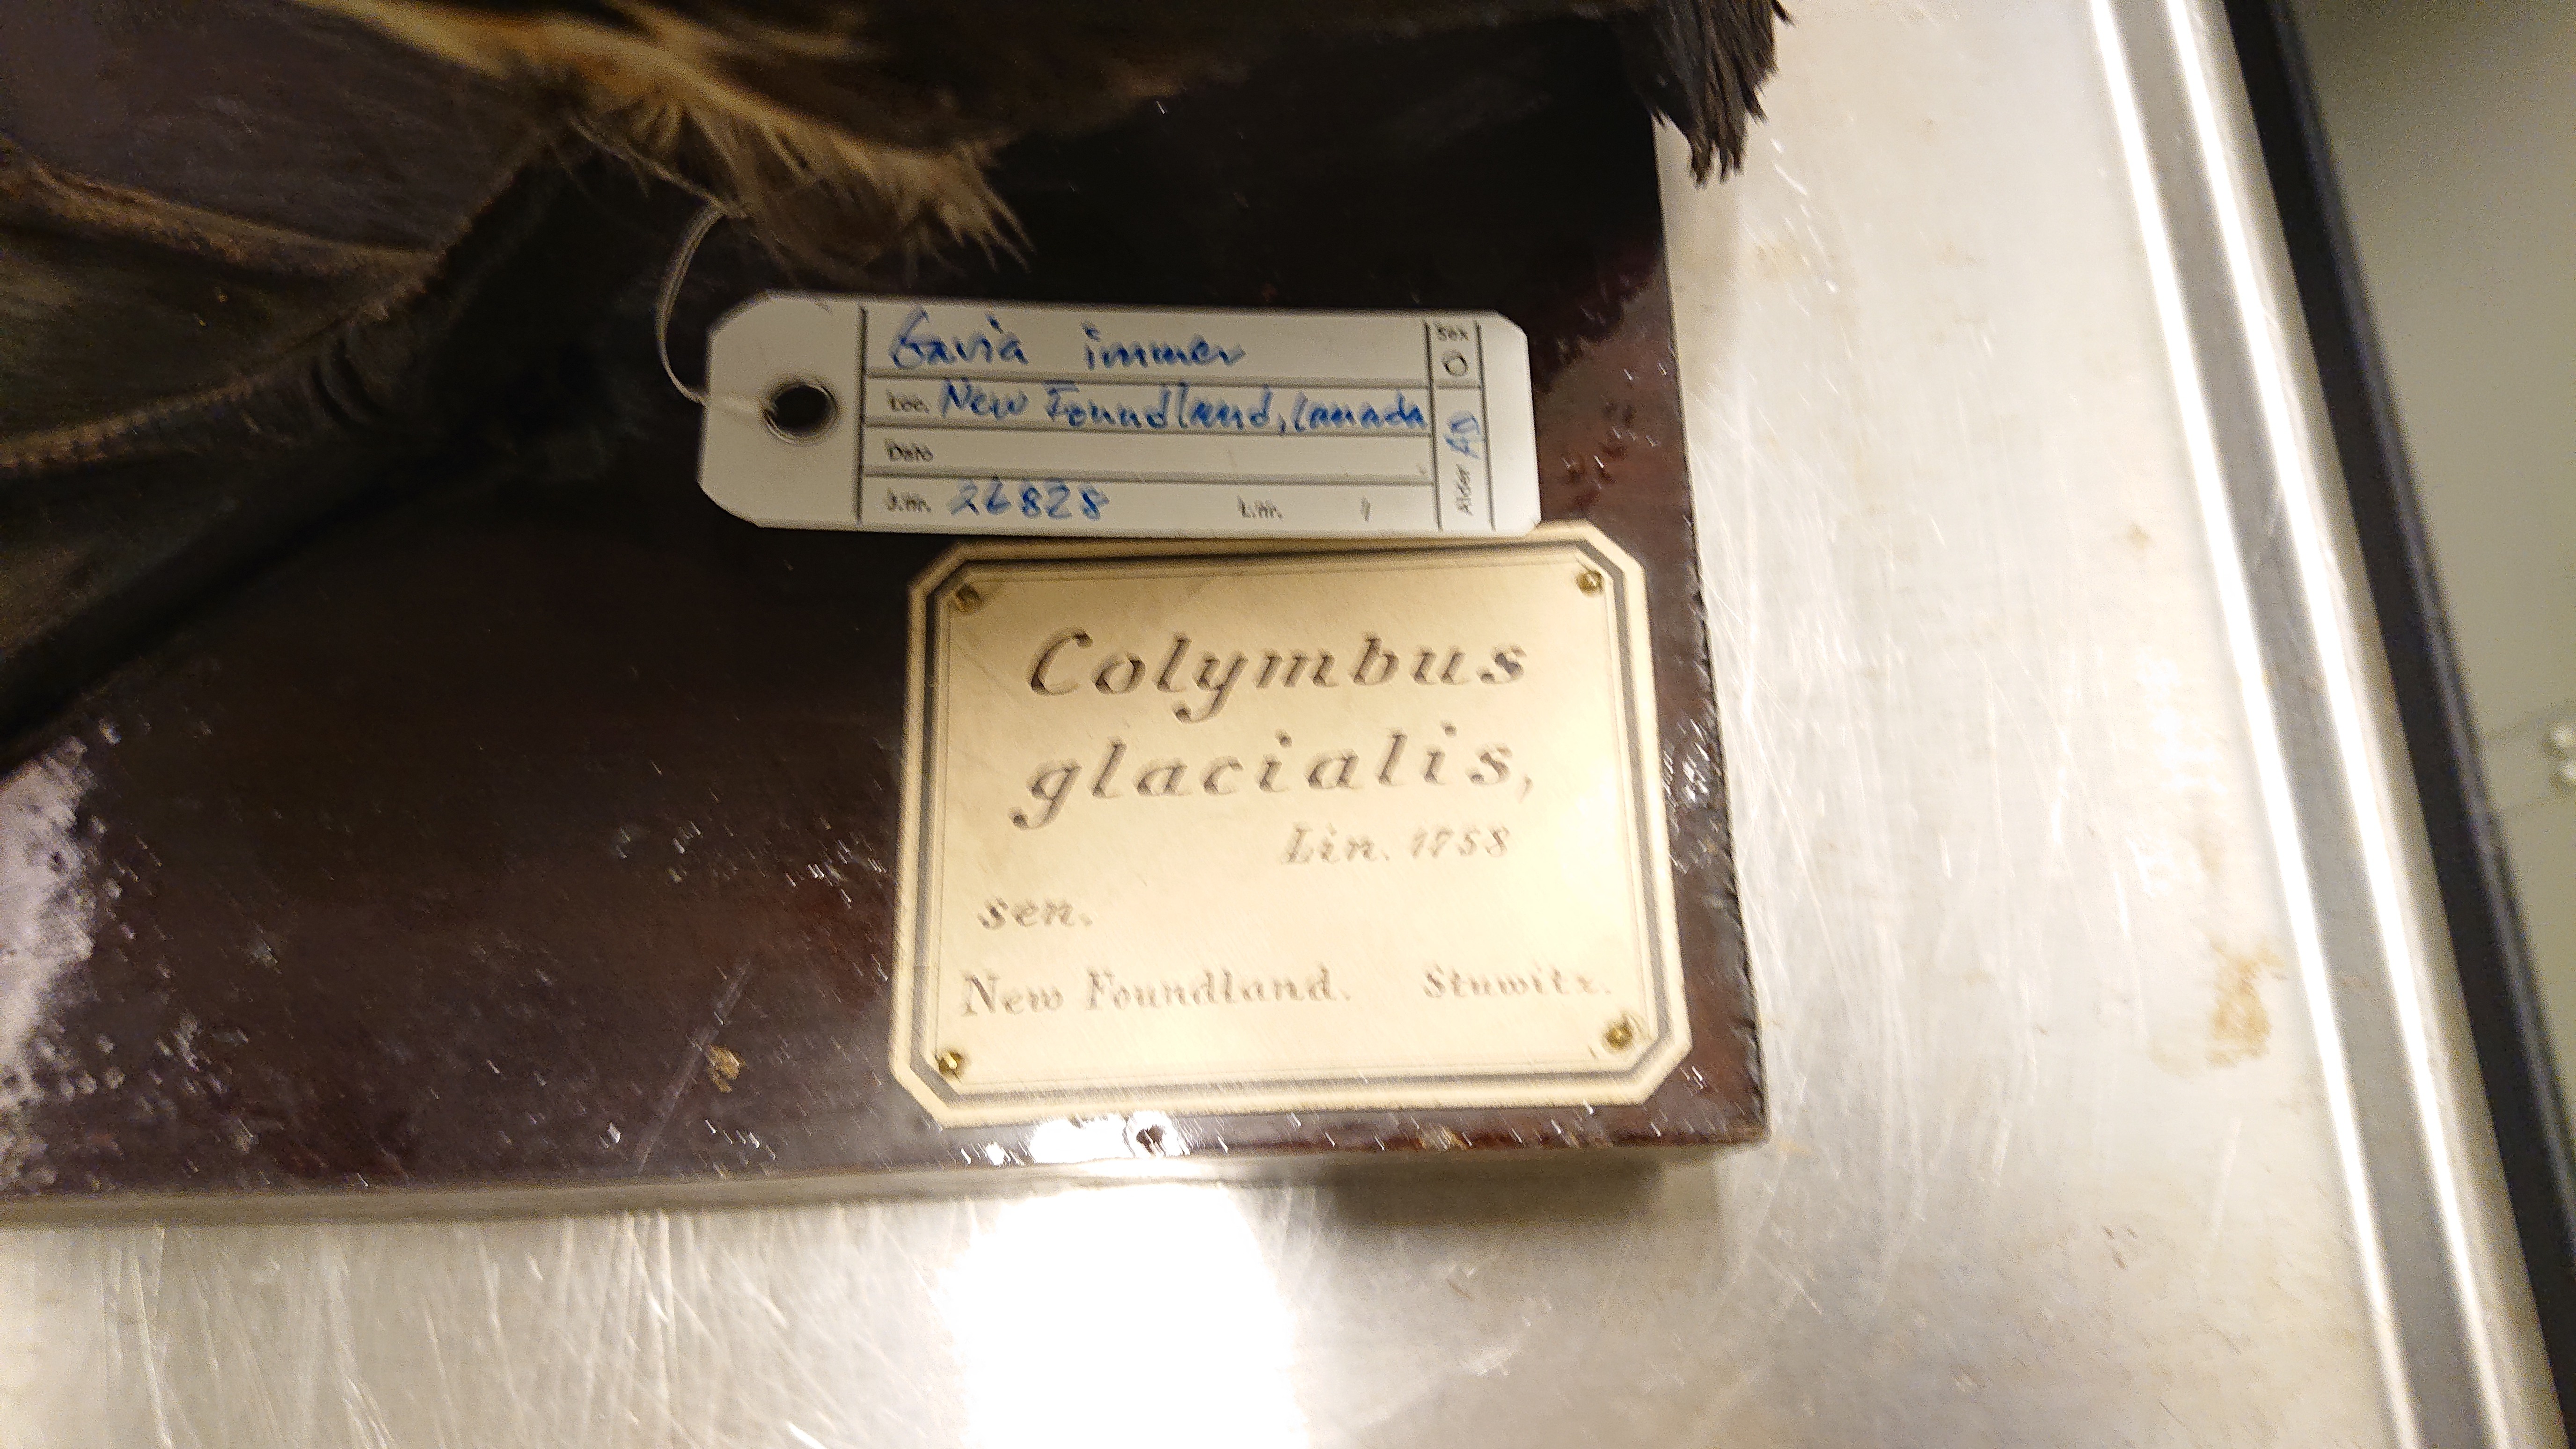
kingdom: Animalia
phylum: Chordata
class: Aves
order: Gaviiformes
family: Gaviidae
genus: Gavia
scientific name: Gavia immer
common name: Common loon
